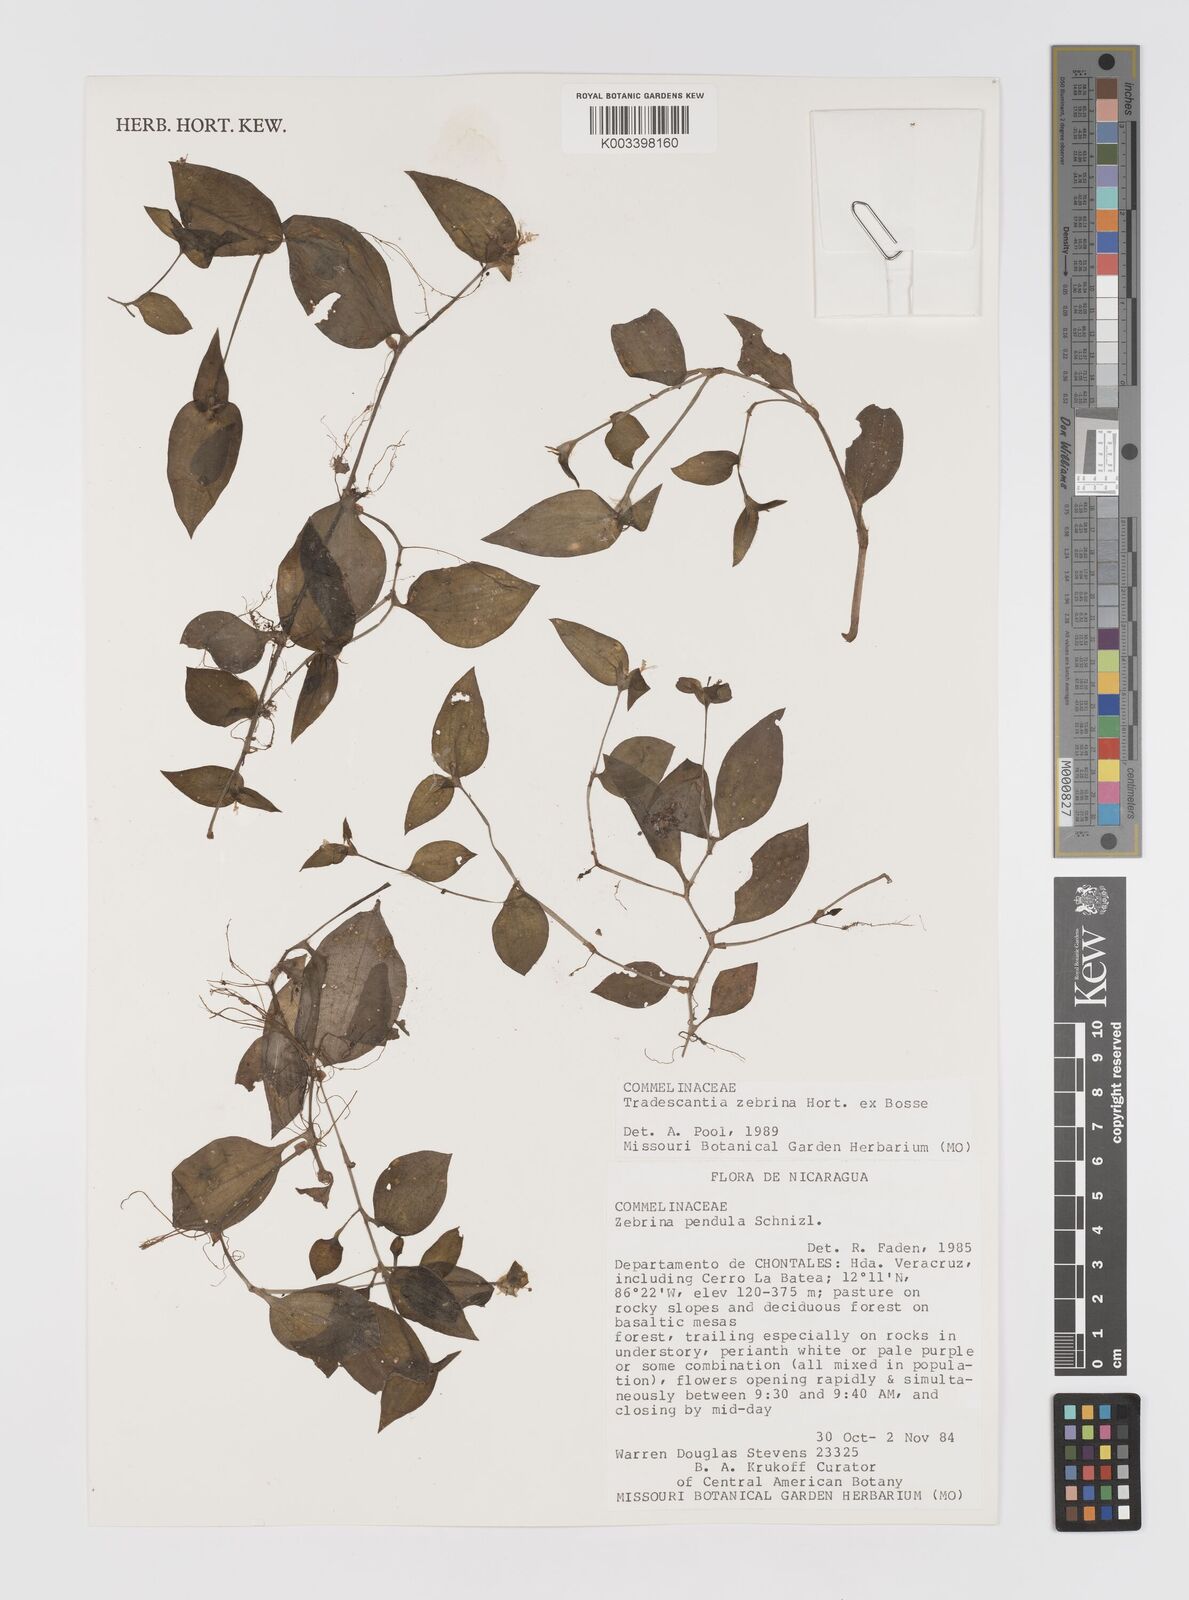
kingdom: Plantae
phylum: Tracheophyta
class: Liliopsida
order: Commelinales
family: Commelinaceae
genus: Tradescantia
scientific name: Tradescantia zebrina
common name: Inchplant
